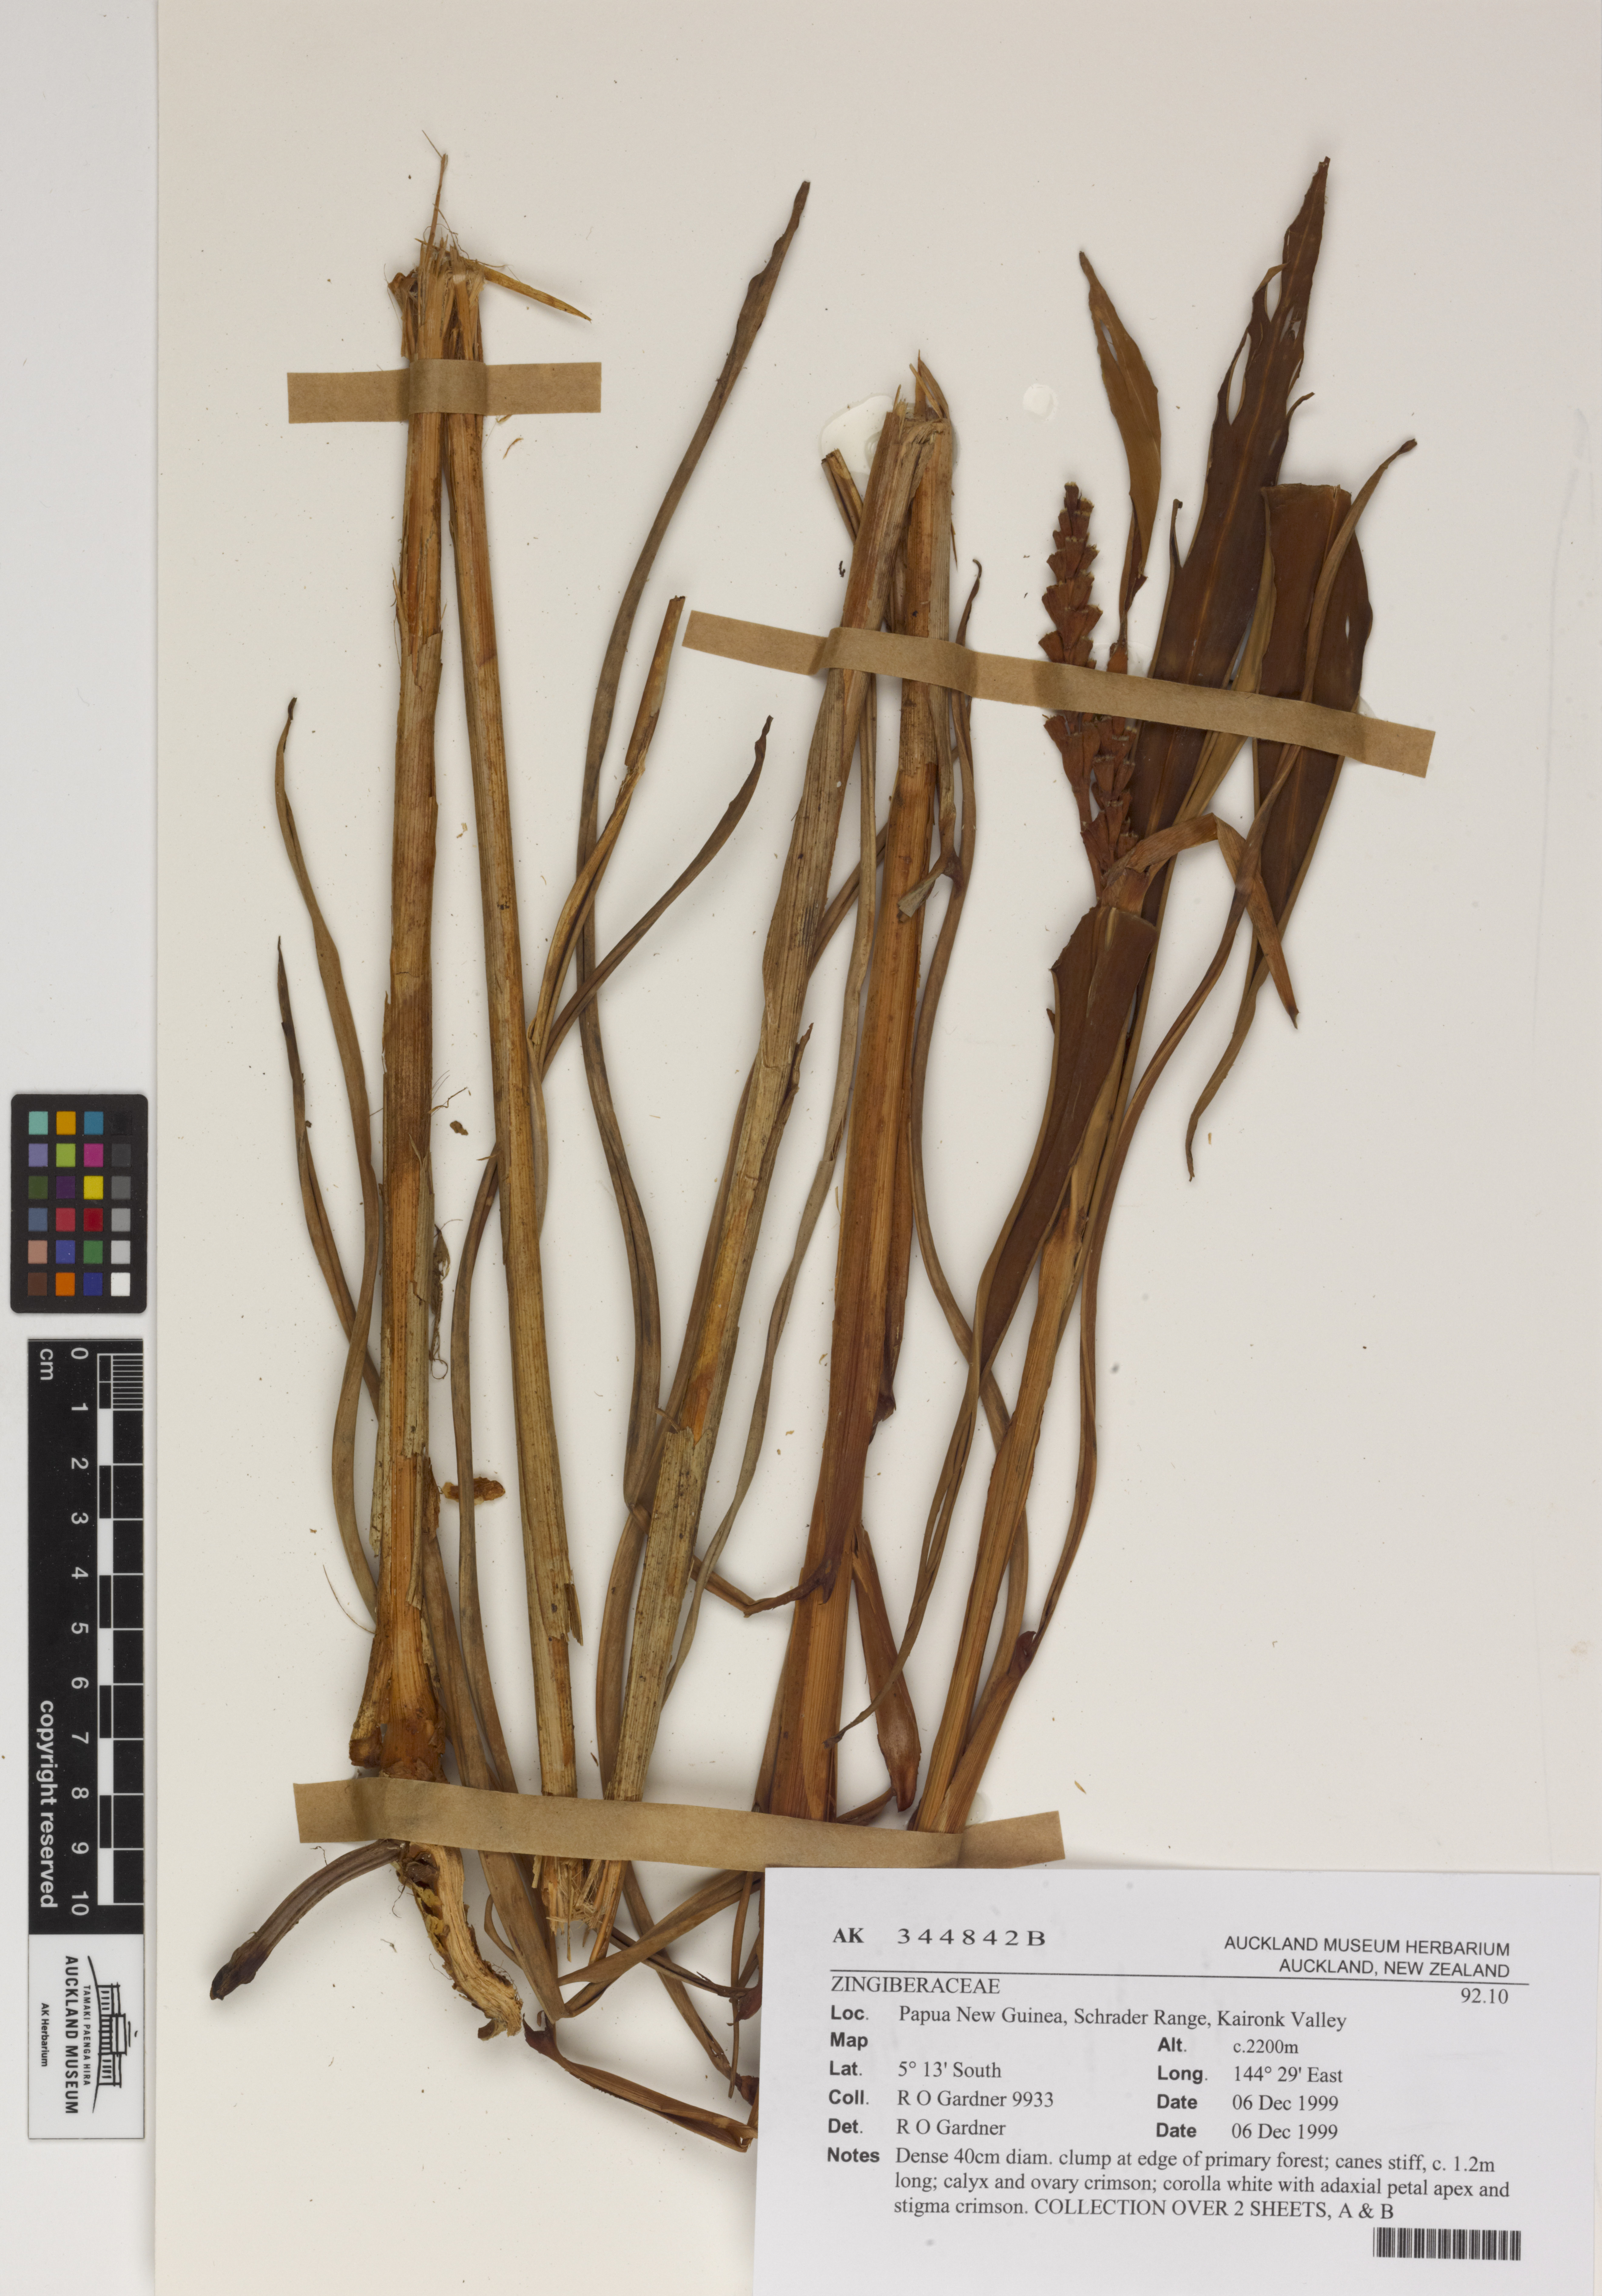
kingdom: Plantae
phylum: Tracheophyta
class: Liliopsida
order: Zingiberales
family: Zingiberaceae
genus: Riedelia
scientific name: Riedelia
